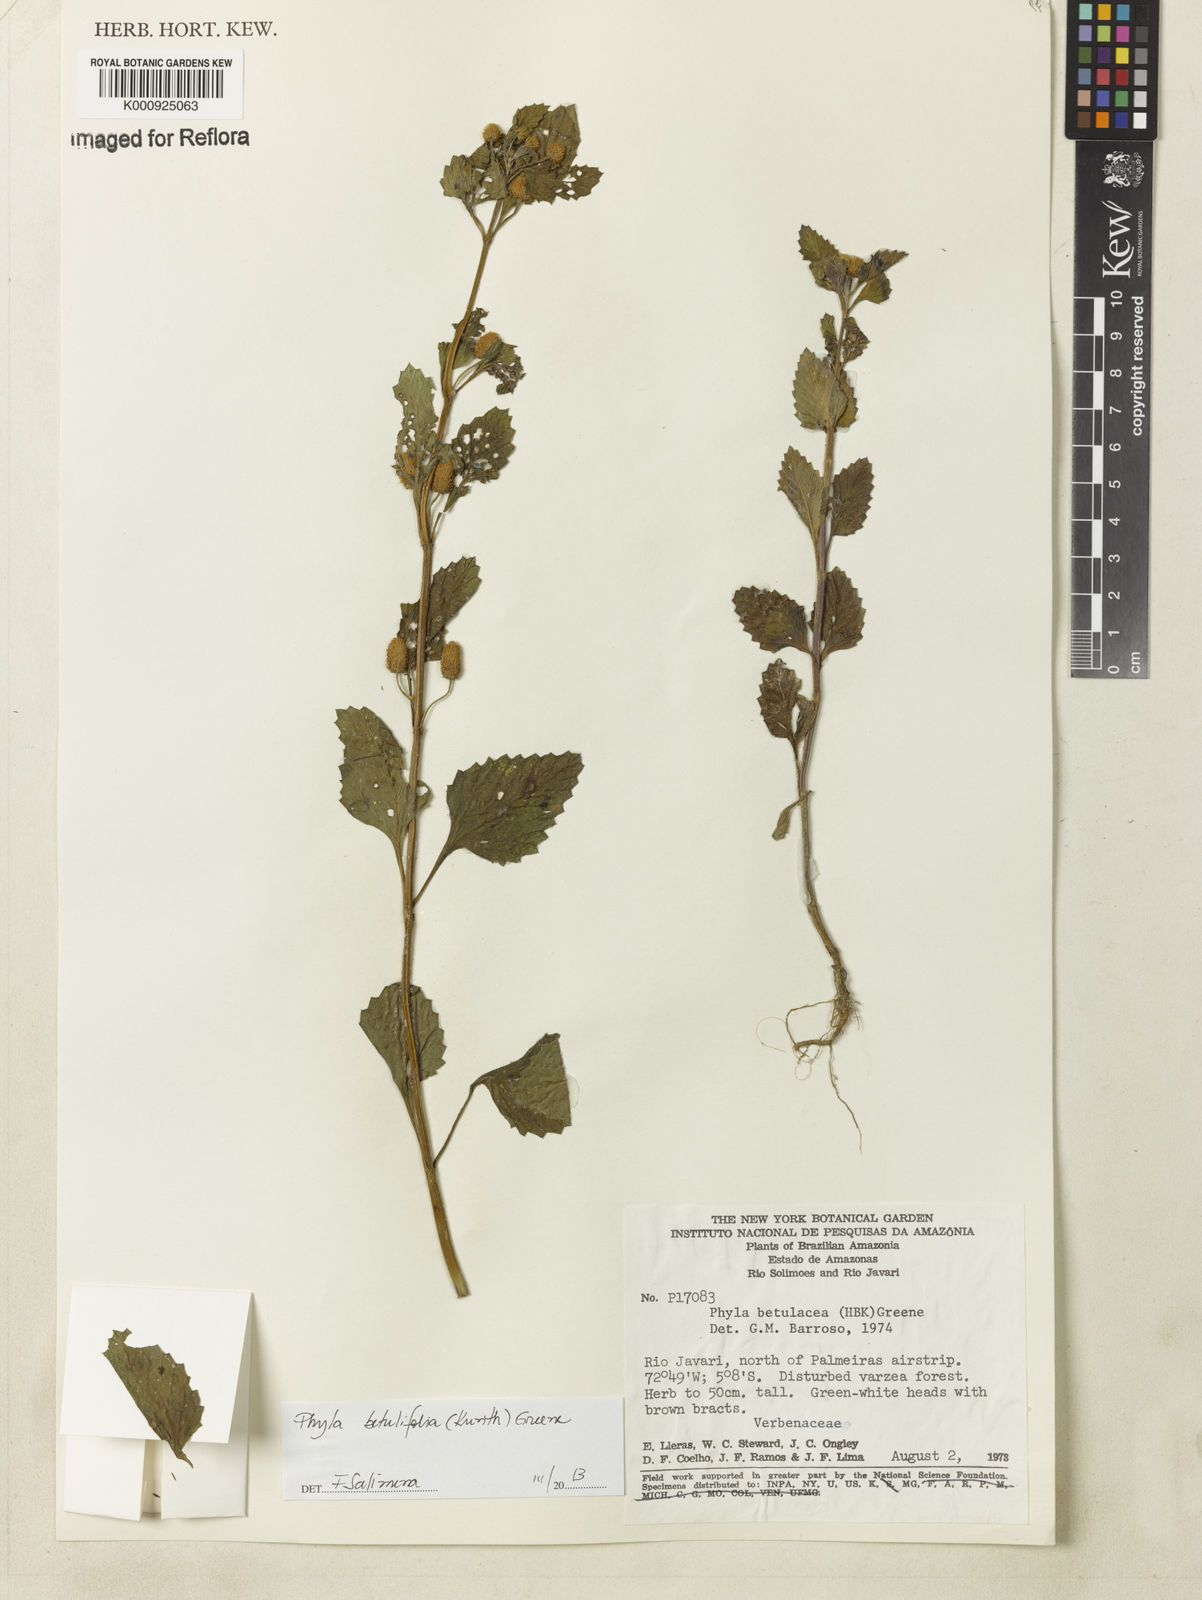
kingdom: Plantae
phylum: Tracheophyta
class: Magnoliopsida
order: Lamiales
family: Verbenaceae
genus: Phyla
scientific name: Phyla betulifolia
